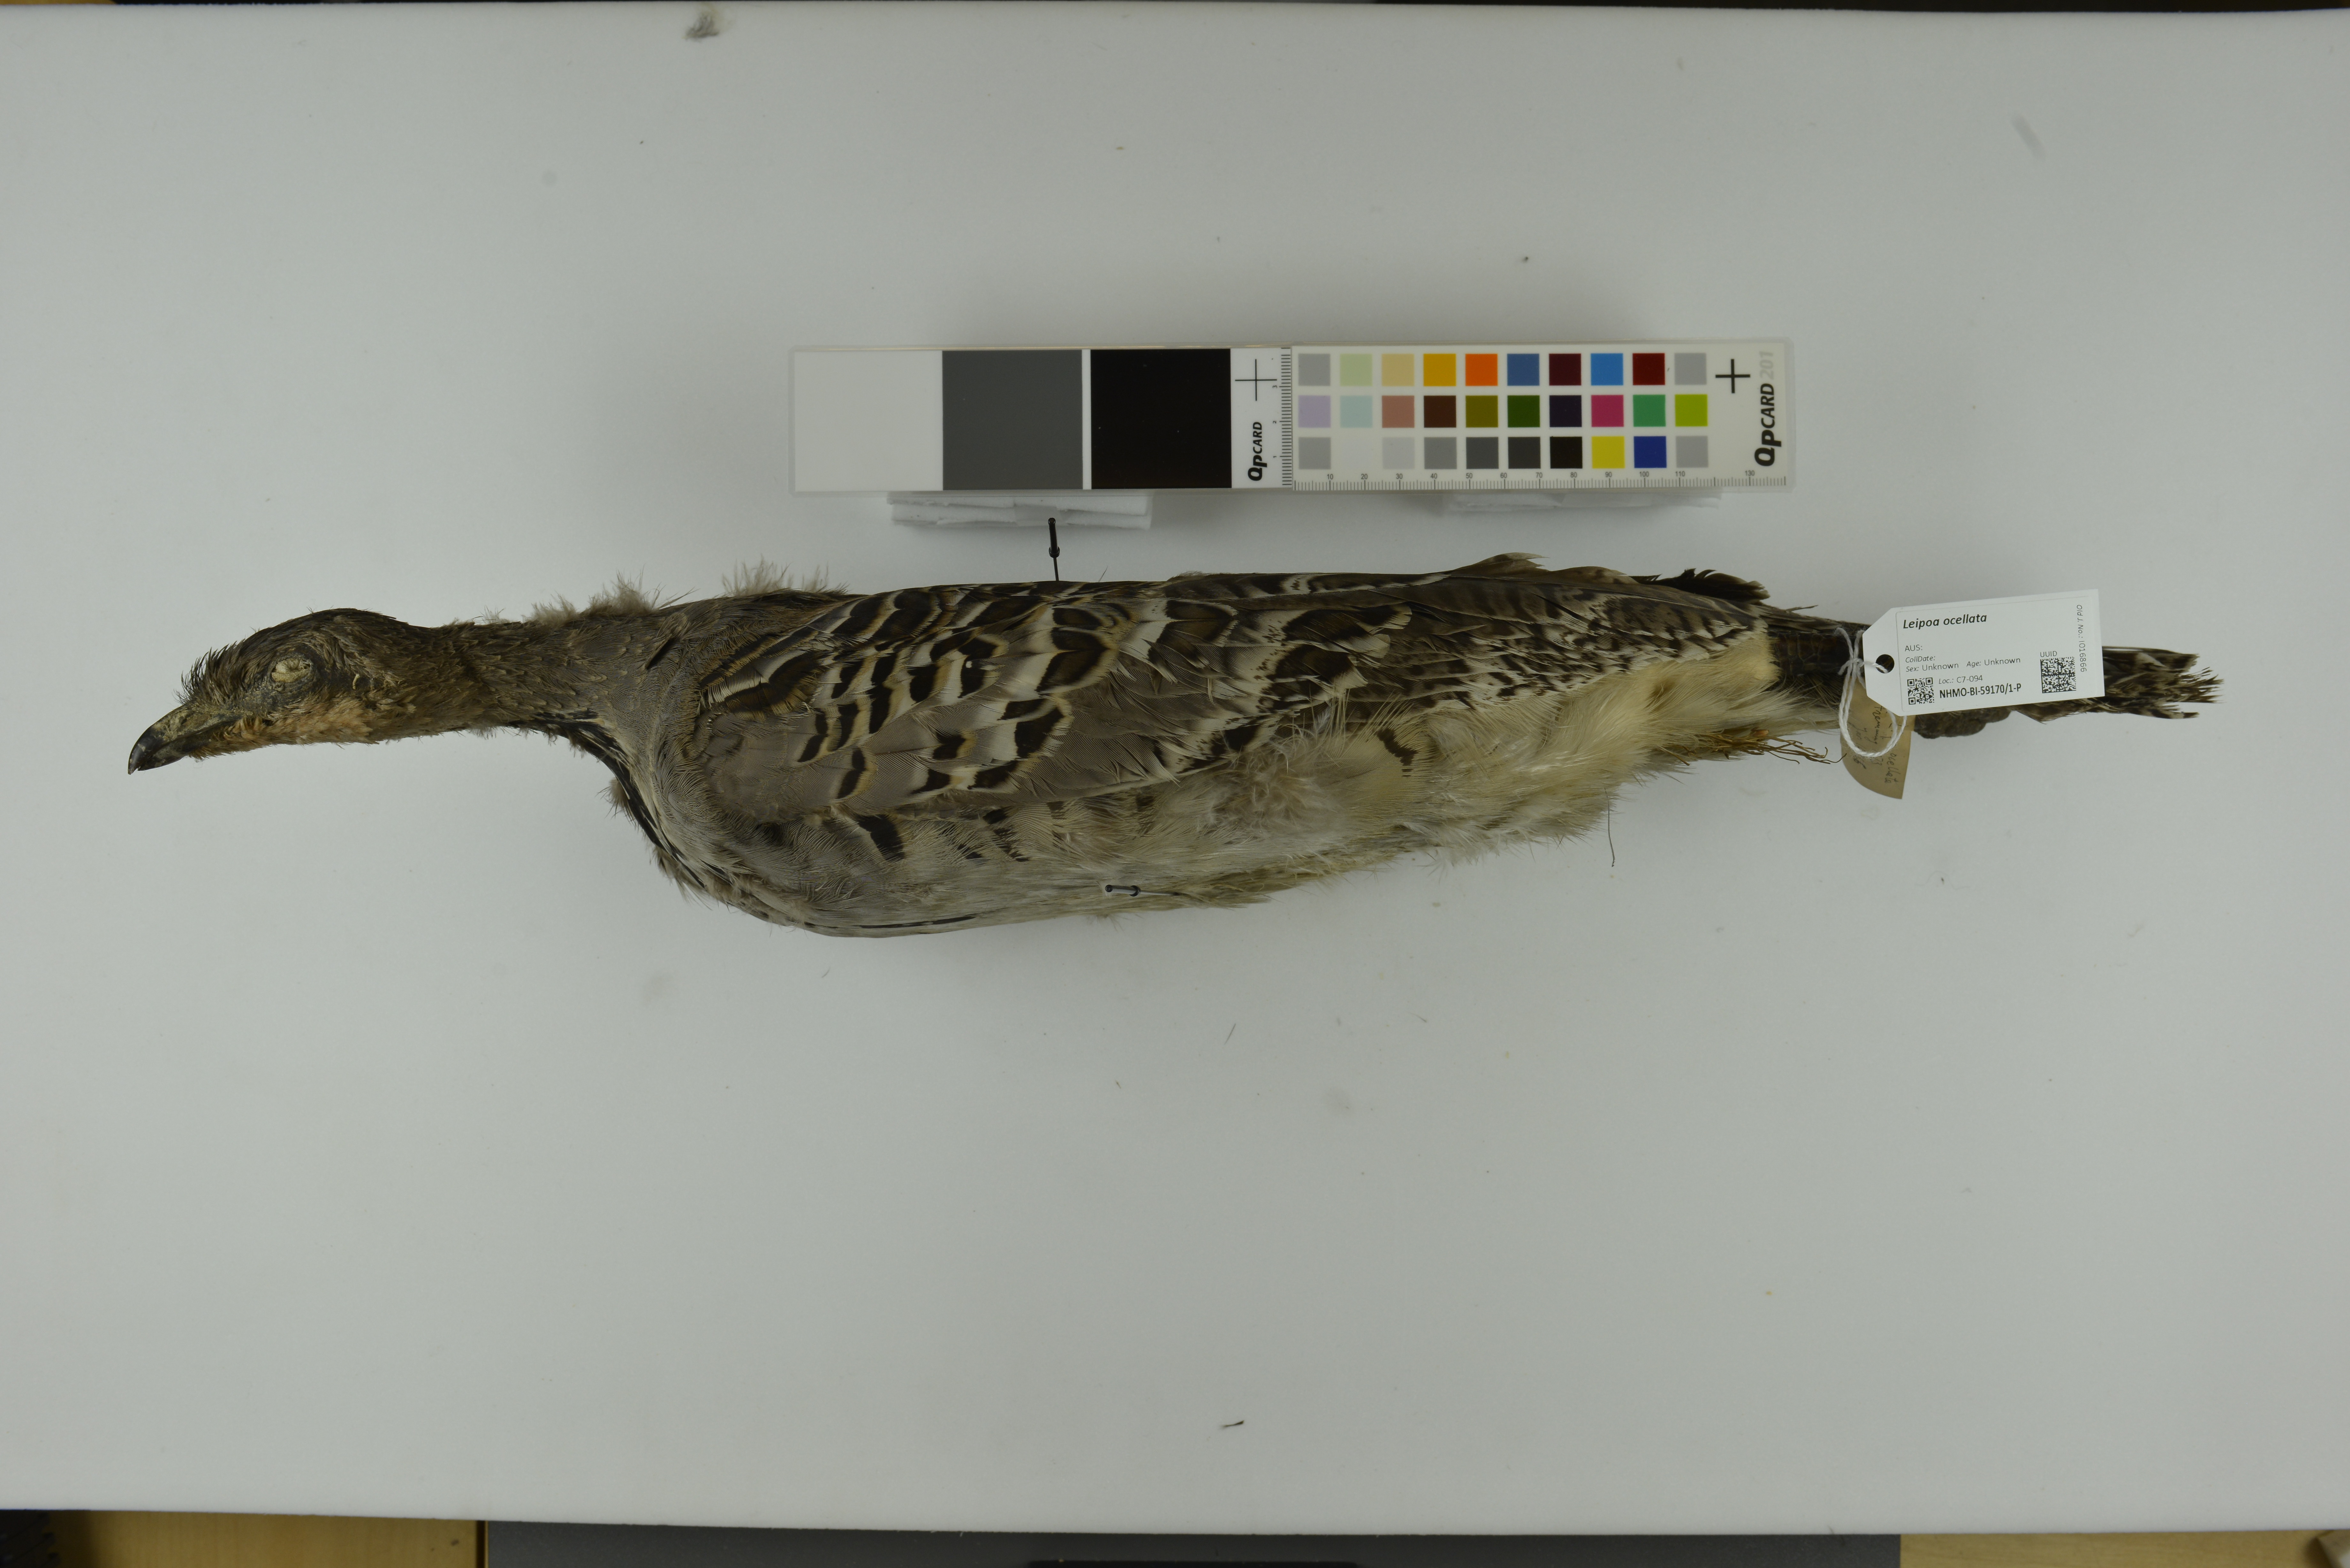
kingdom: Animalia
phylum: Chordata
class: Aves
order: Galliformes
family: Megapodiidae
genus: Leipoa
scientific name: Leipoa ocellata
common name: Malleefowl
